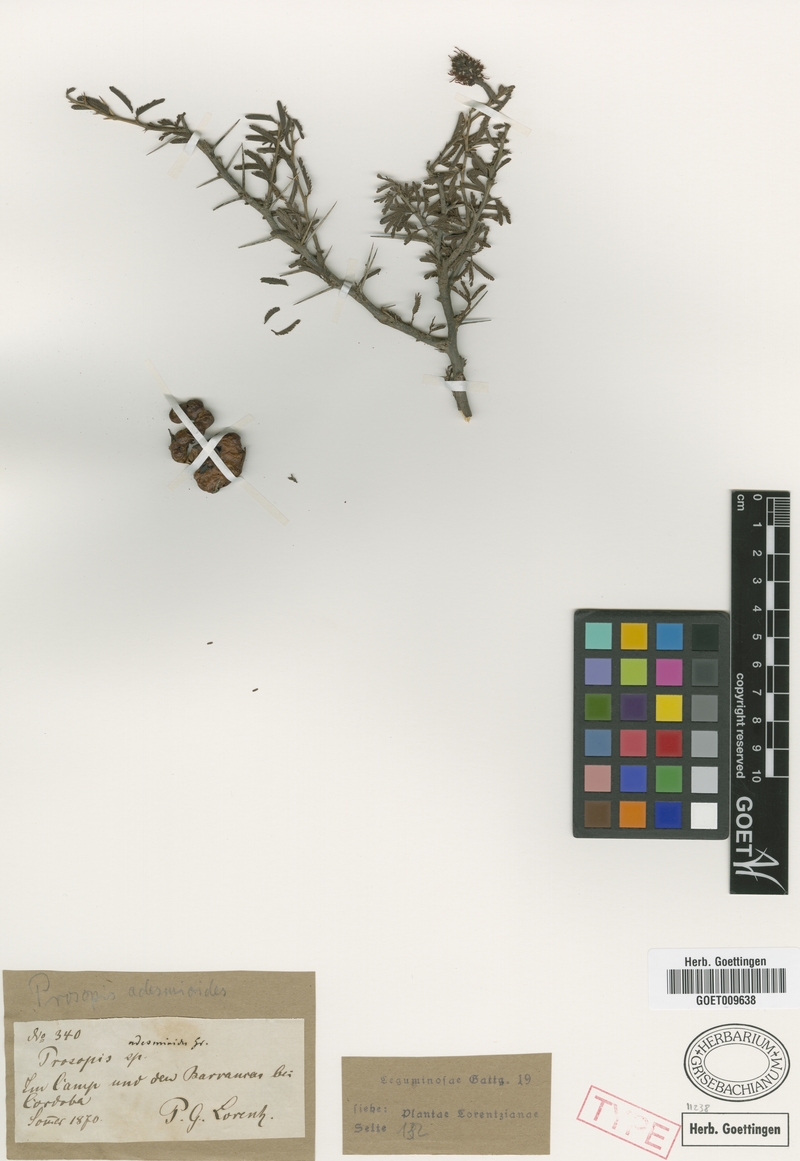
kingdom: Plantae
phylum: Tracheophyta
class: Magnoliopsida
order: Fabales
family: Fabaceae
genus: Prosopis
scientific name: Prosopis torquata
